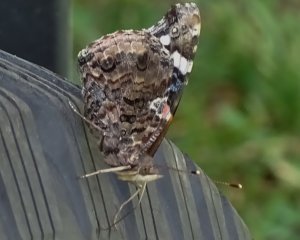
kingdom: Animalia
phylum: Arthropoda
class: Insecta
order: Lepidoptera
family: Nymphalidae
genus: Vanessa
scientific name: Vanessa atalanta
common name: Red Admiral
